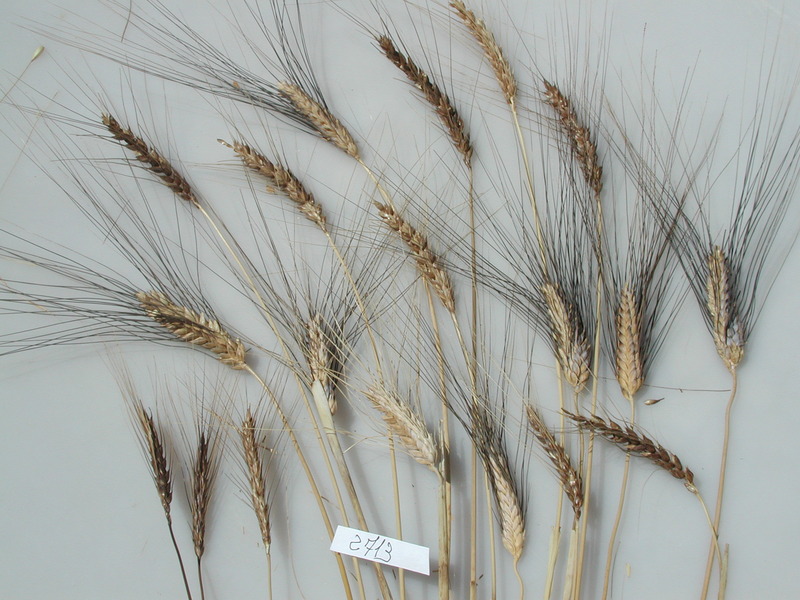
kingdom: Plantae
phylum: Tracheophyta
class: Liliopsida
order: Poales
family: Poaceae
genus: Triticum
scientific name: Triticum aestivum
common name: Wheat
